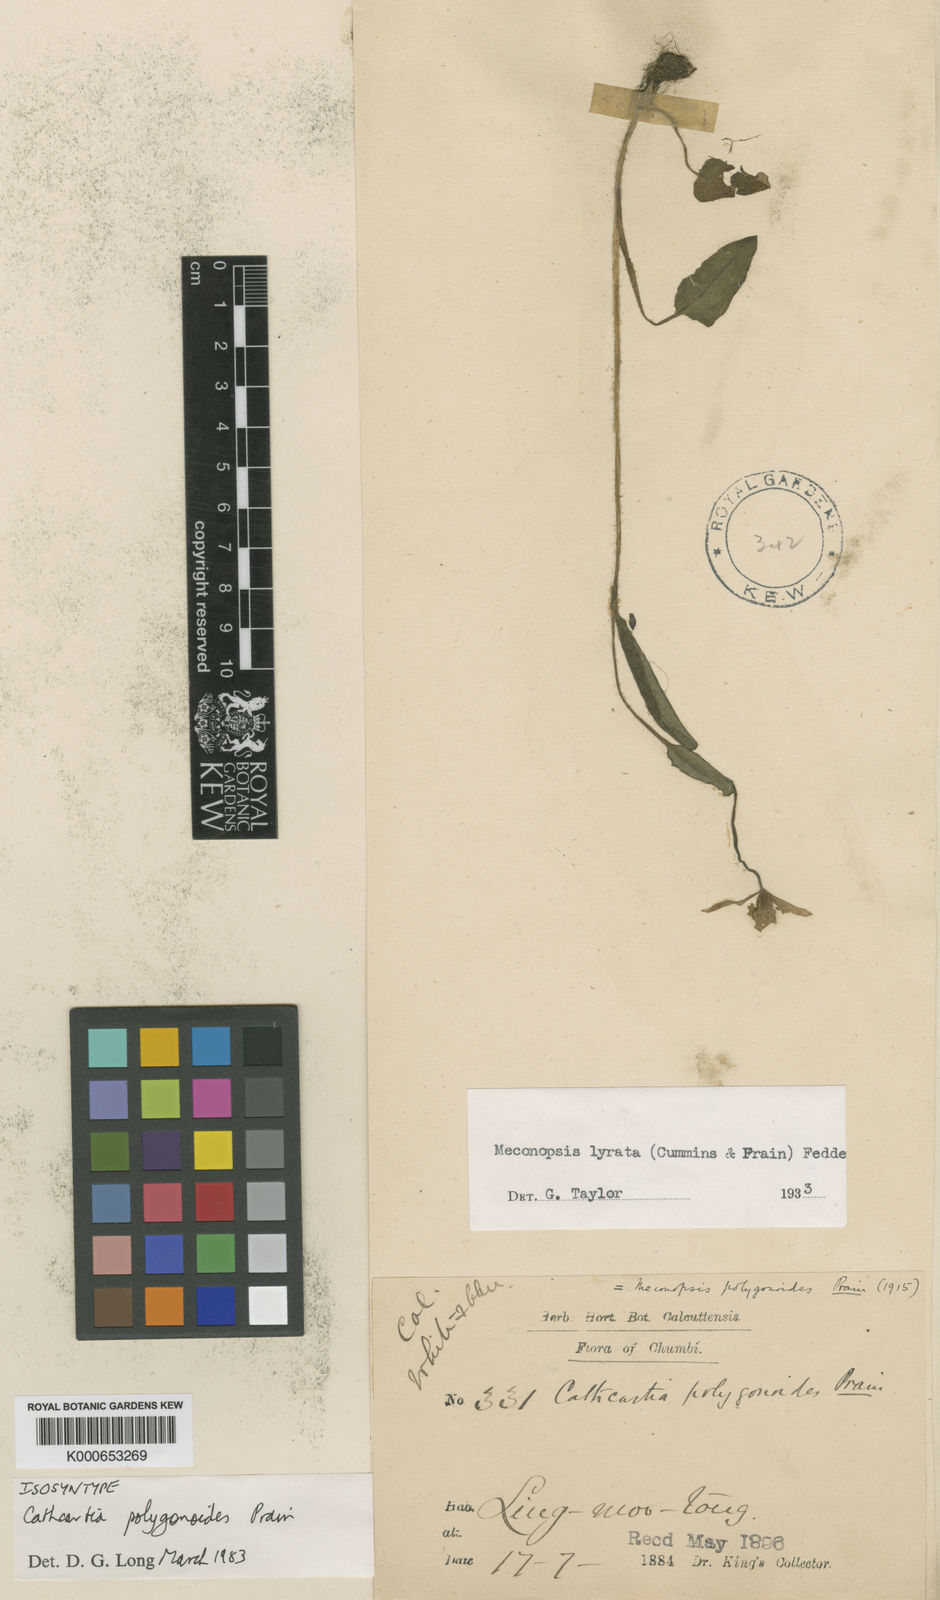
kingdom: Plantae
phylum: Tracheophyta
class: Magnoliopsida
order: Ranunculales
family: Papaveraceae
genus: Meconopsis
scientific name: Meconopsis lyrata
